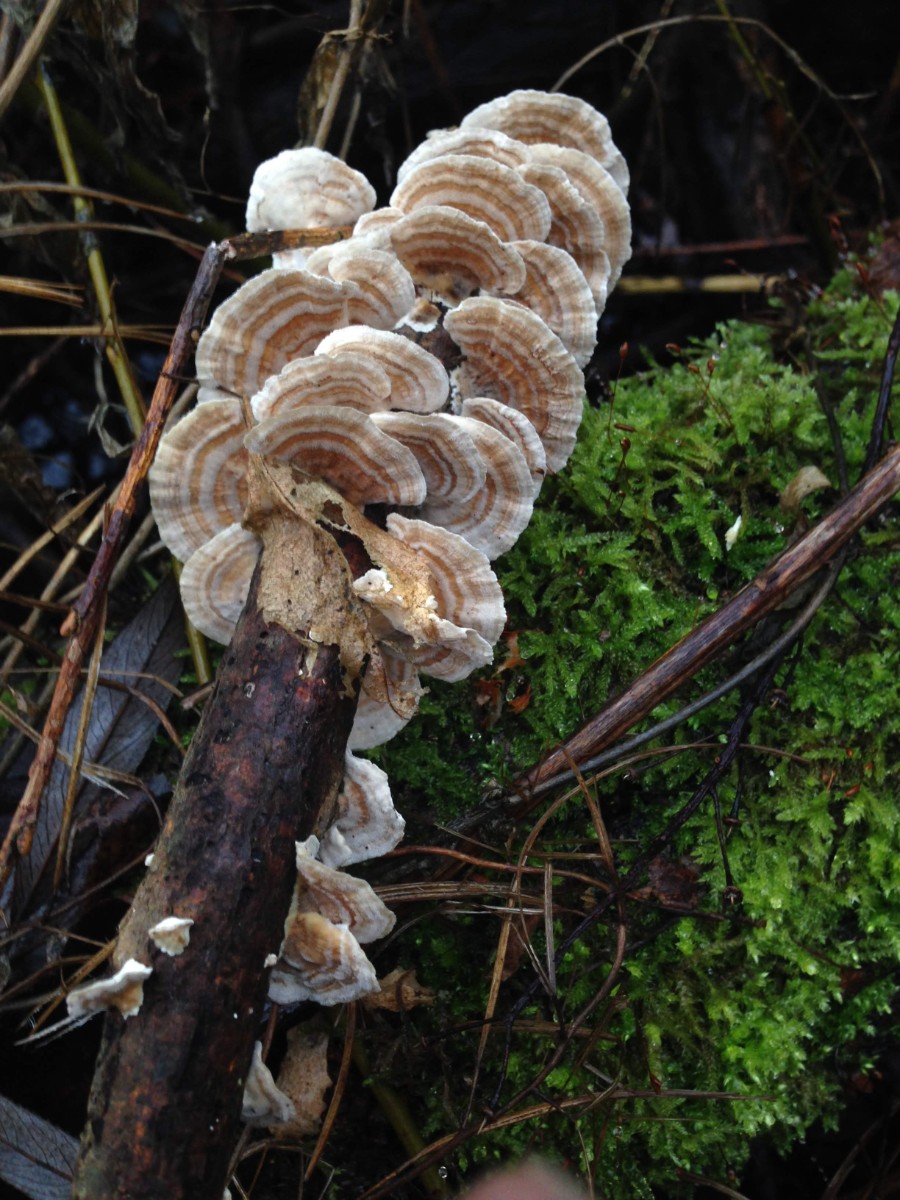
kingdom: Fungi
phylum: Basidiomycota
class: Agaricomycetes
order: Polyporales
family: Polyporaceae
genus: Trametes
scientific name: Trametes versicolor
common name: broget læderporesvamp
